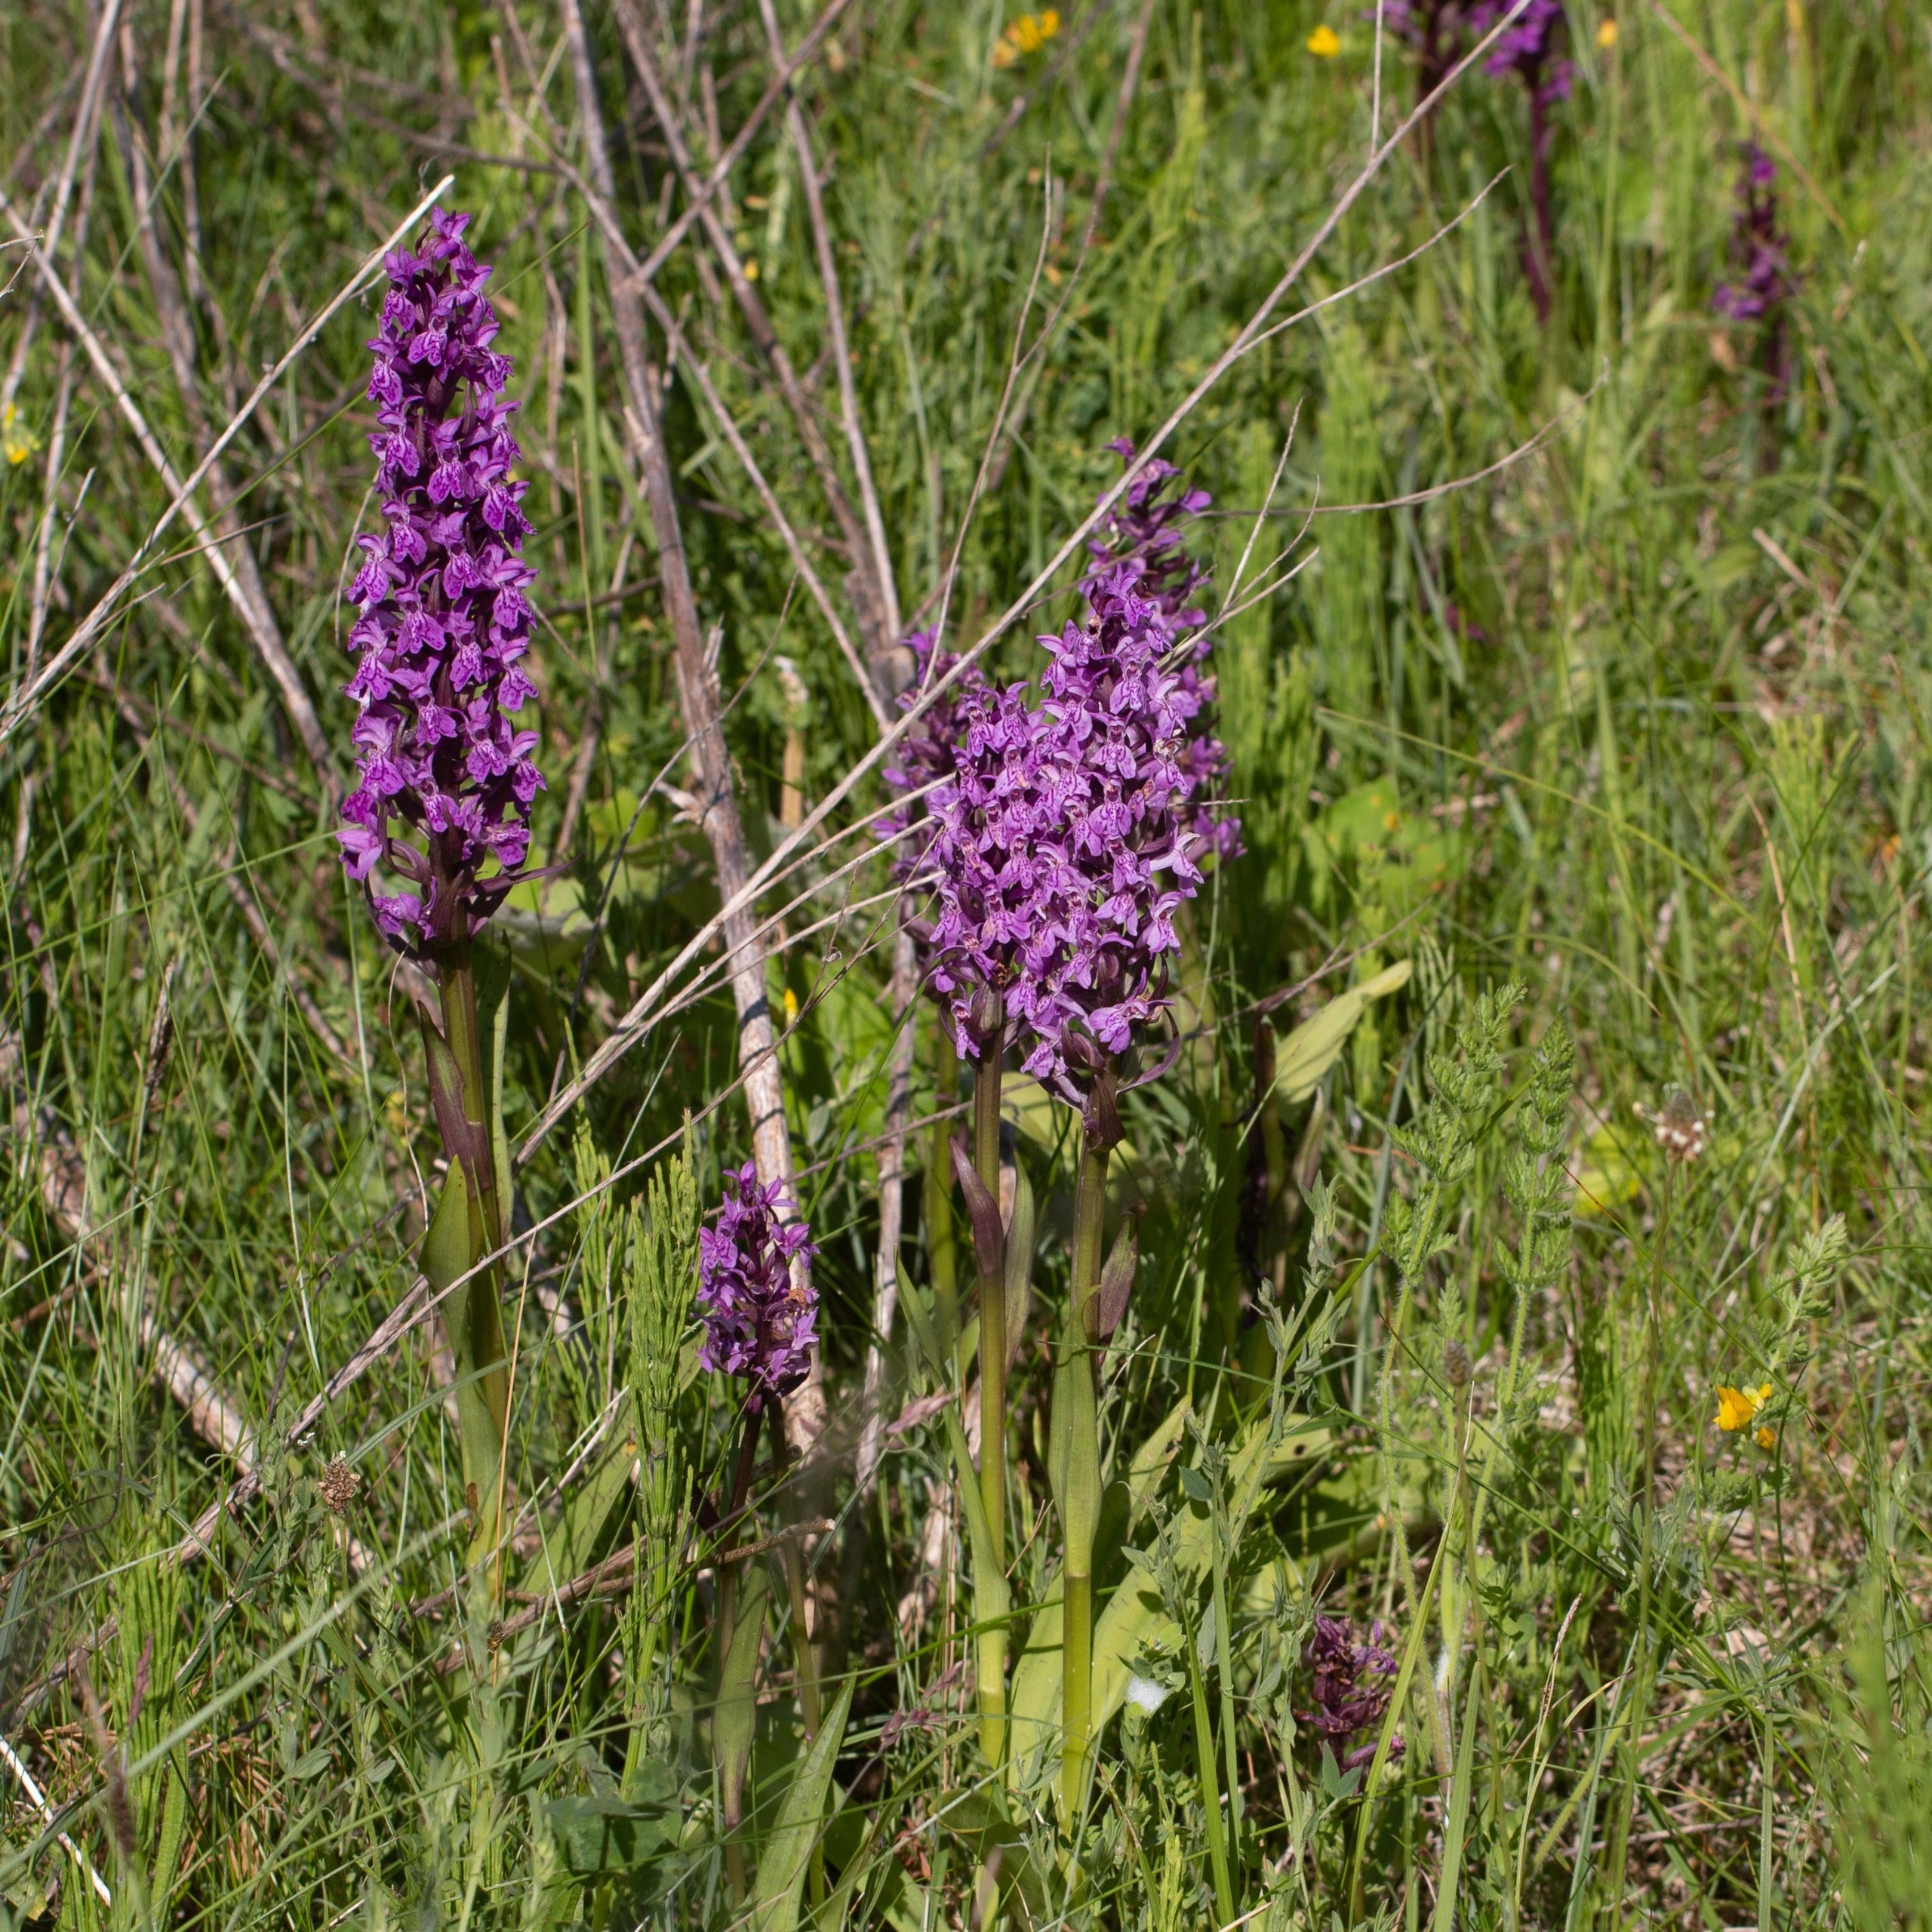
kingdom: Plantae
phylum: Tracheophyta
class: Liliopsida
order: Asparagales
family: Orchidaceae
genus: Dactylorhiza
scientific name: Dactylorhiza majalis
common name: Maj-gøgeurt
